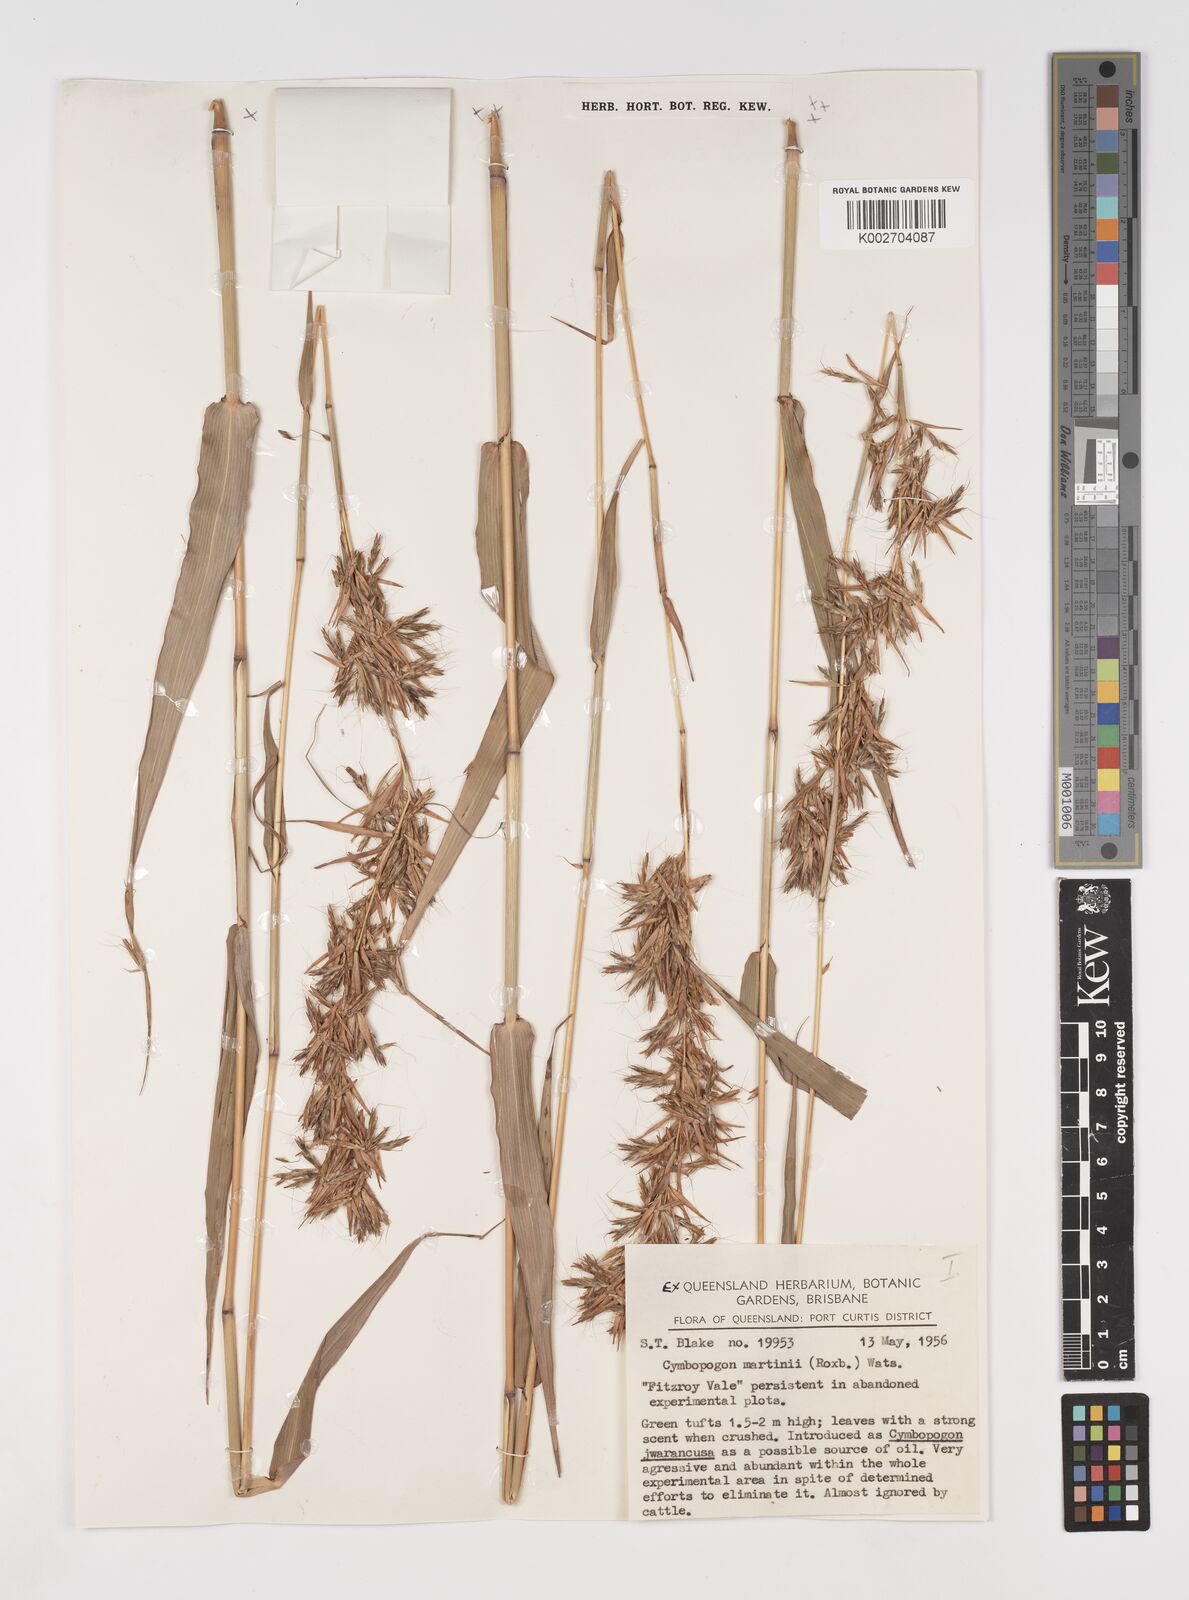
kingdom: Plantae
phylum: Tracheophyta
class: Liliopsida
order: Poales
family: Poaceae
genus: Cymbopogon
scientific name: Cymbopogon martini
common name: Ginger grass
